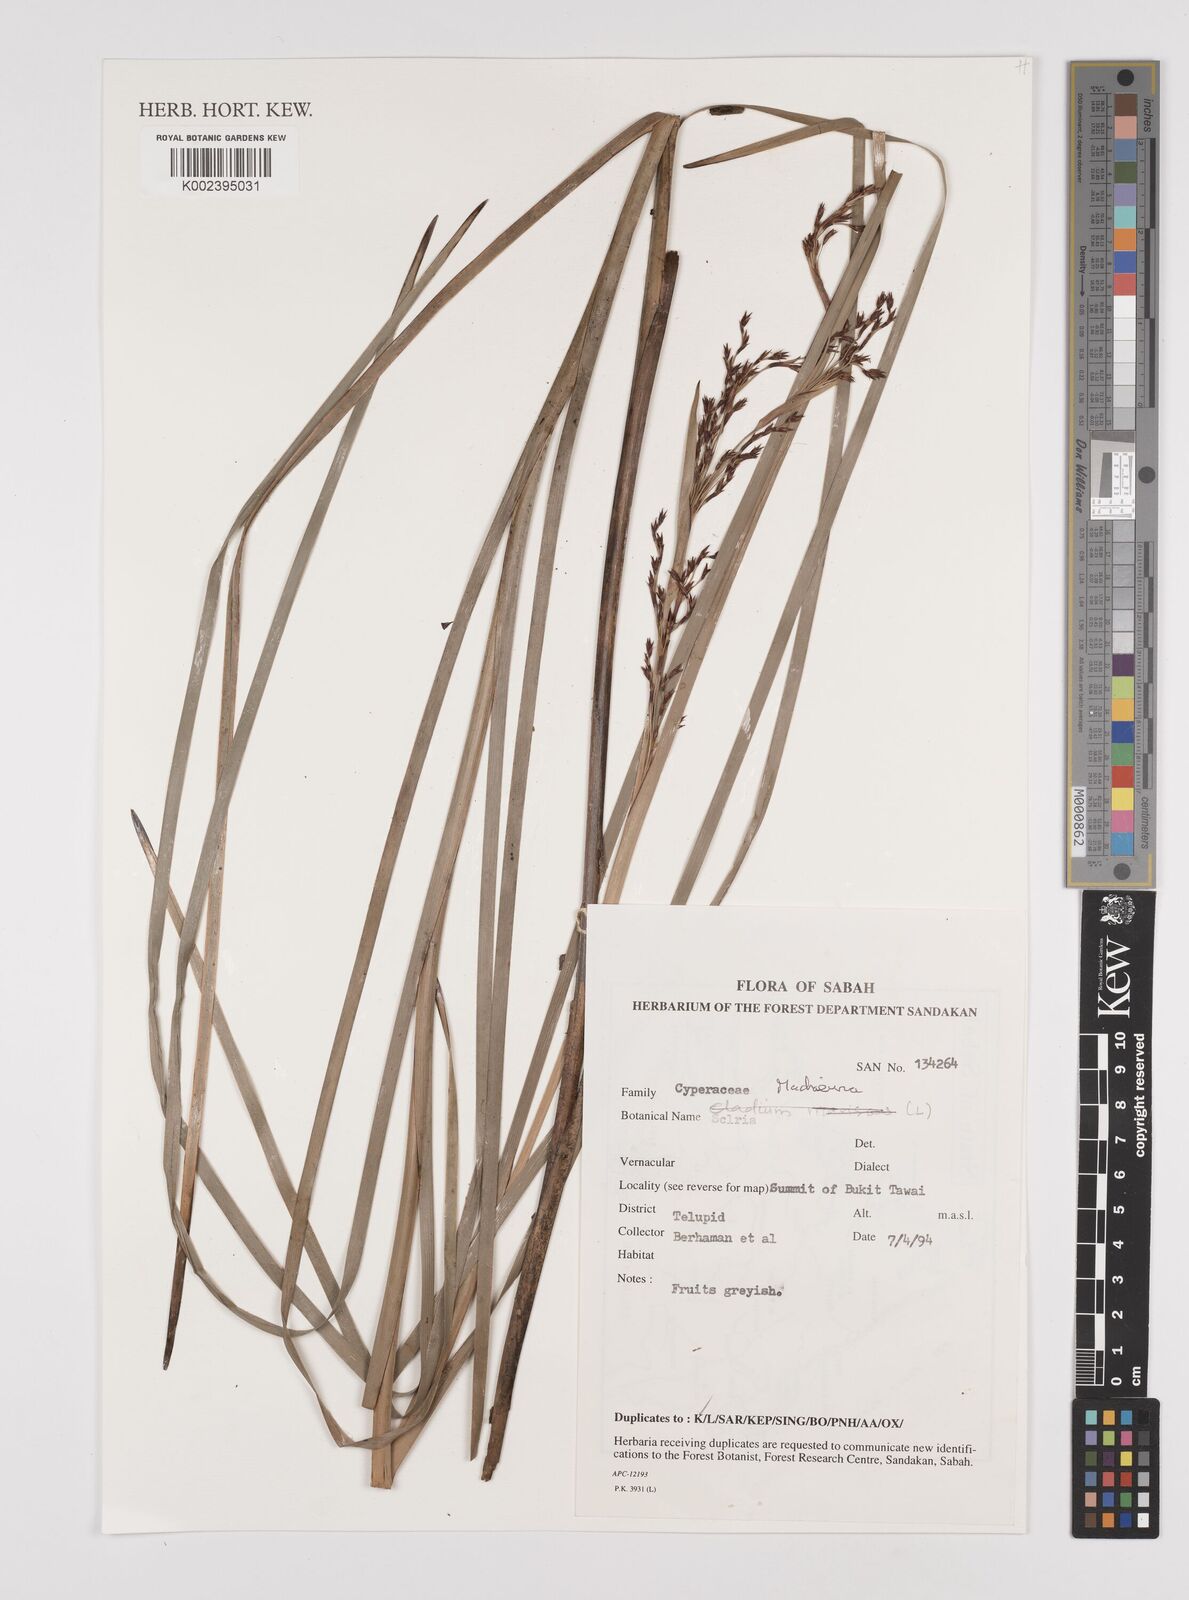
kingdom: Plantae
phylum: Tracheophyta
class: Liliopsida
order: Poales
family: Cyperaceae
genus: Machaerina
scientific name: Machaerina
